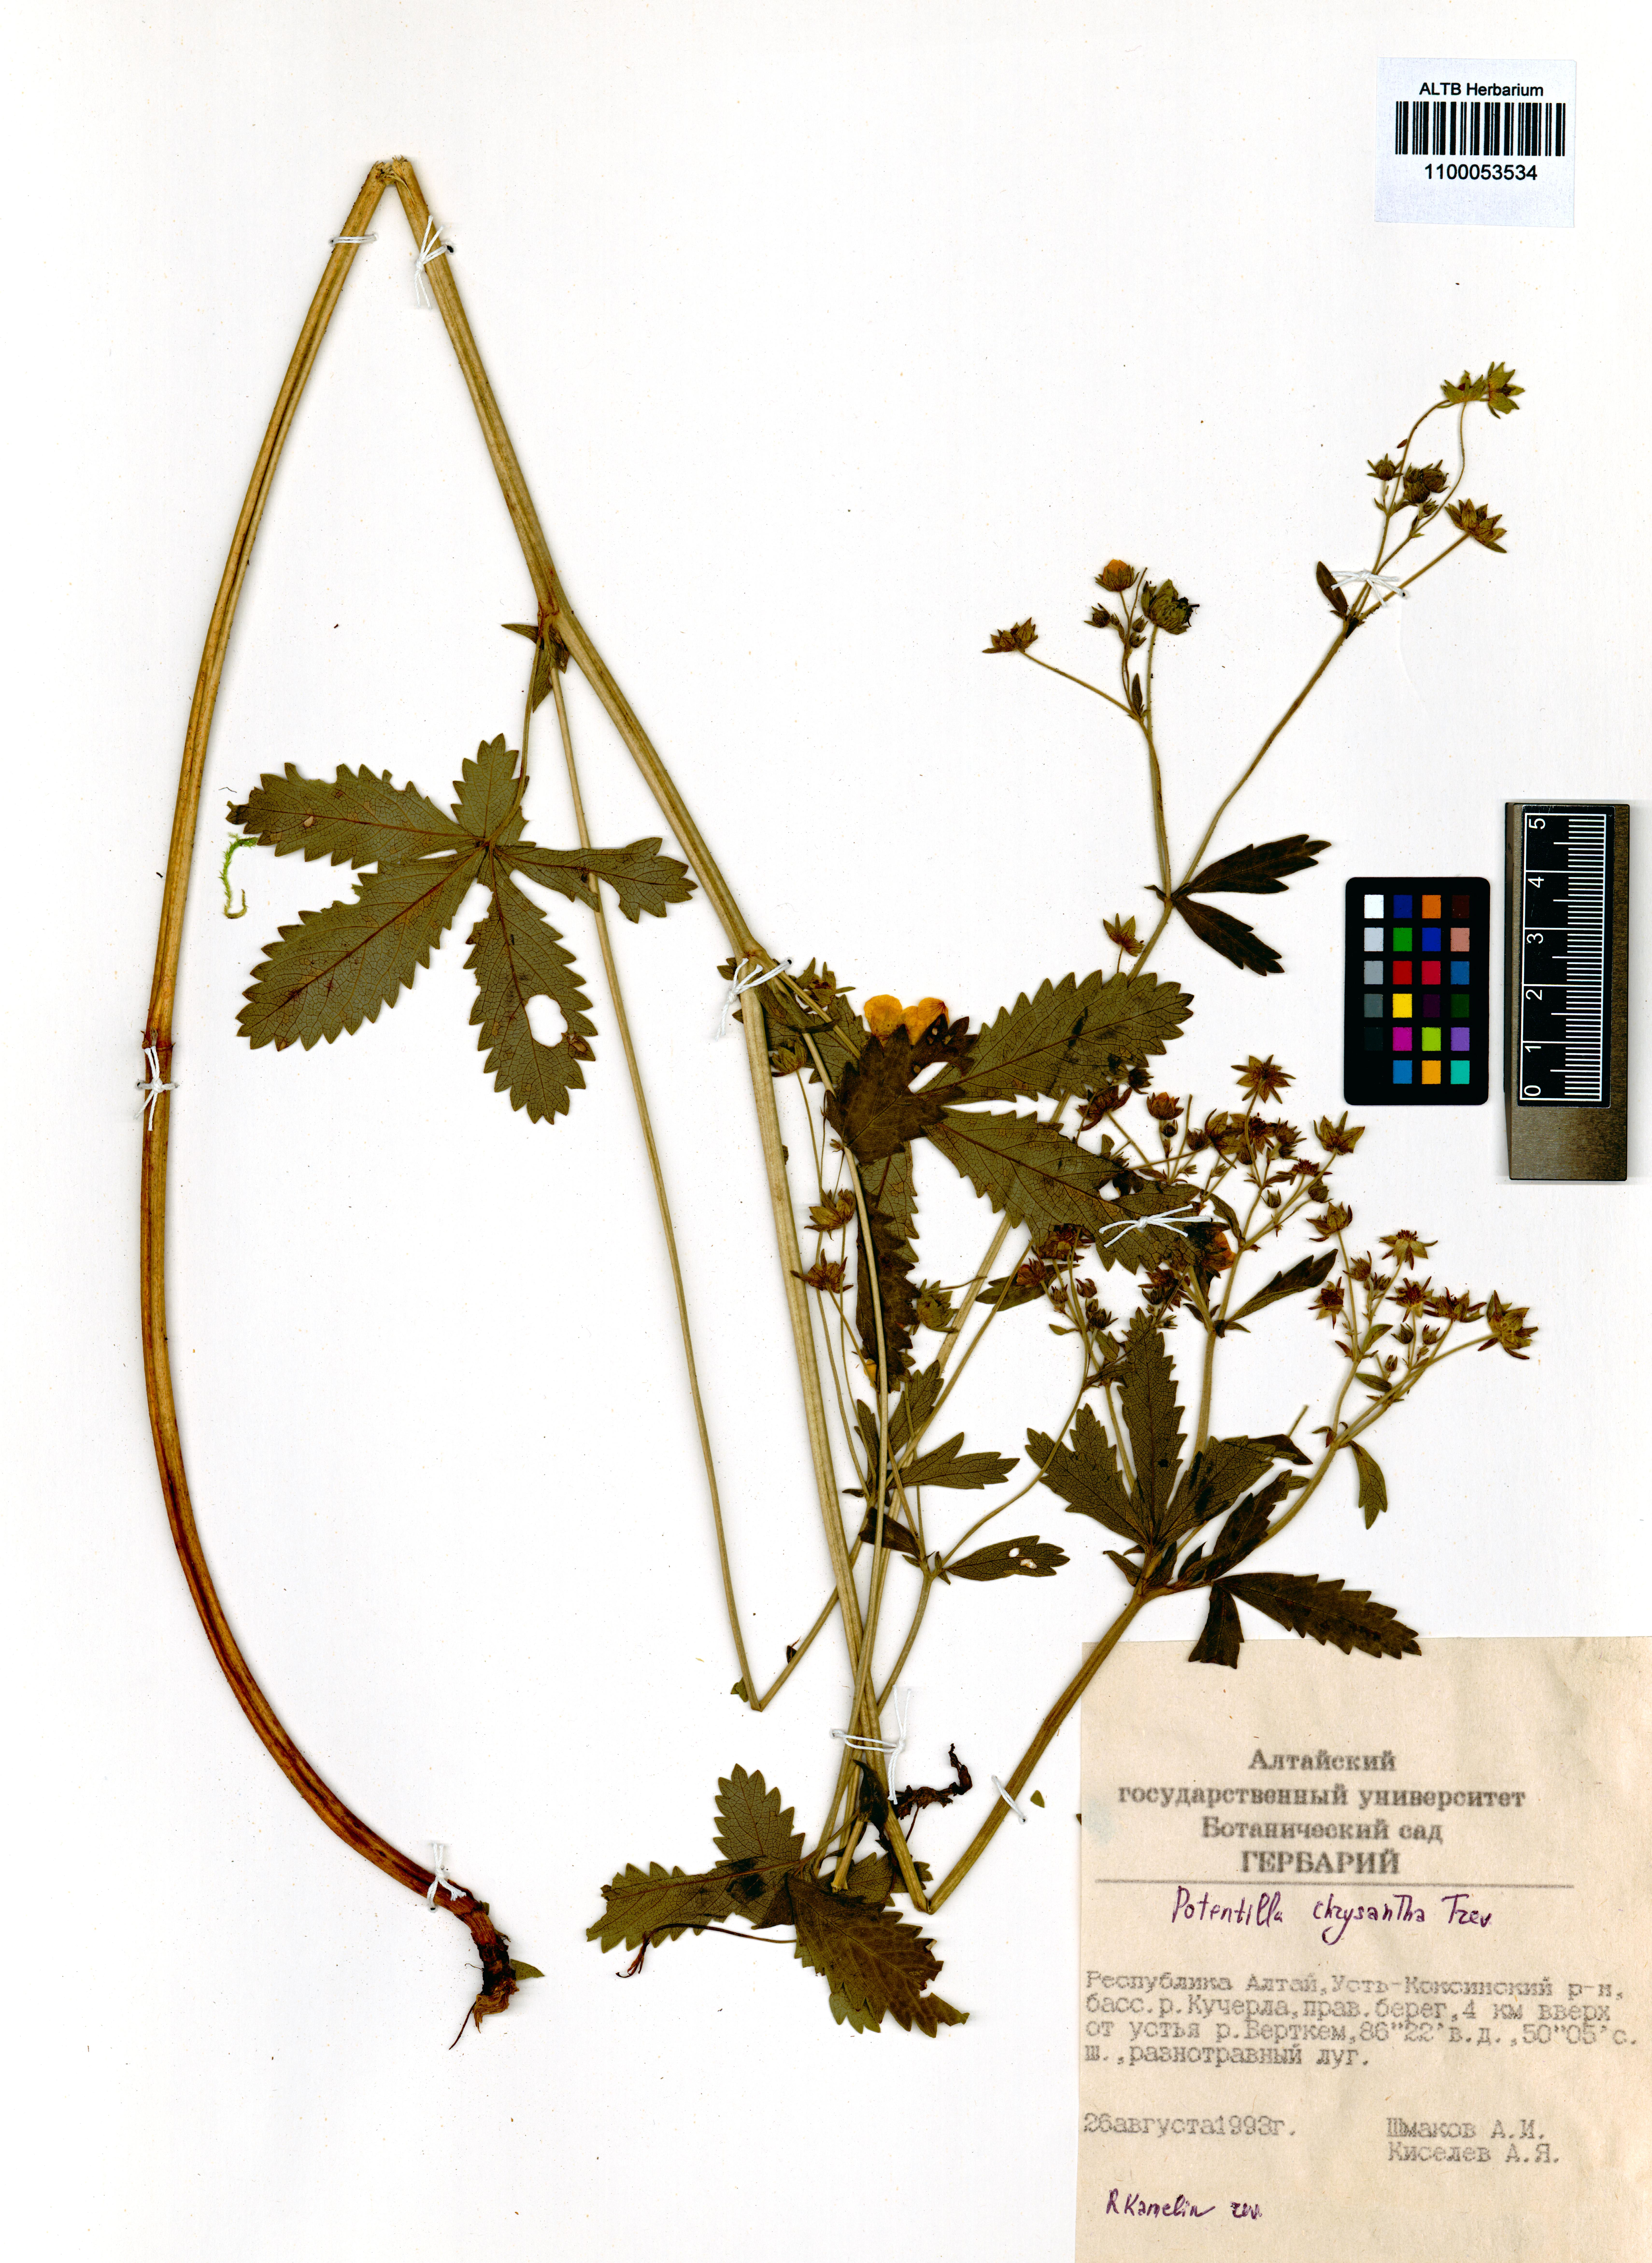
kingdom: Plantae
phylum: Tracheophyta
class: Magnoliopsida
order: Rosales
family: Rosaceae
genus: Potentilla
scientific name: Potentilla chrysantha
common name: Thuringian cinquefoil
